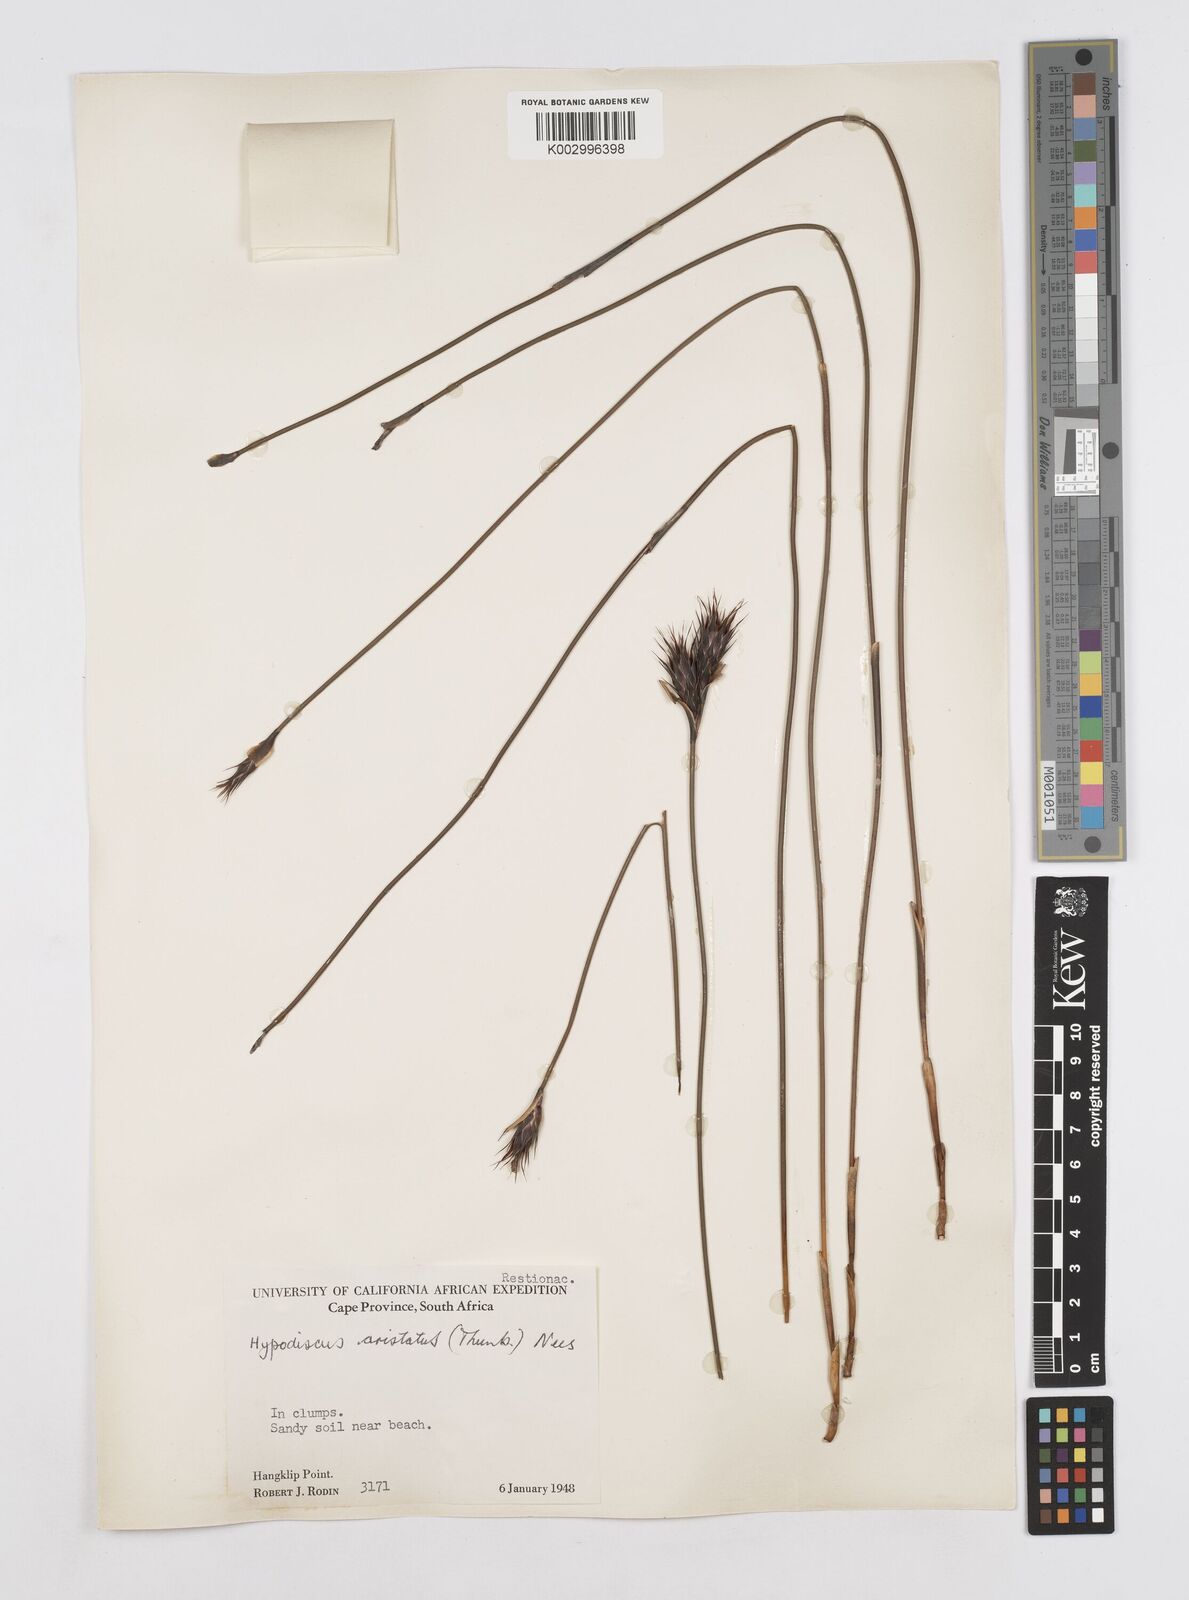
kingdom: Plantae
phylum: Tracheophyta
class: Liliopsida
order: Poales
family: Restionaceae
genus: Hypodiscus
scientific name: Hypodiscus aristatus
